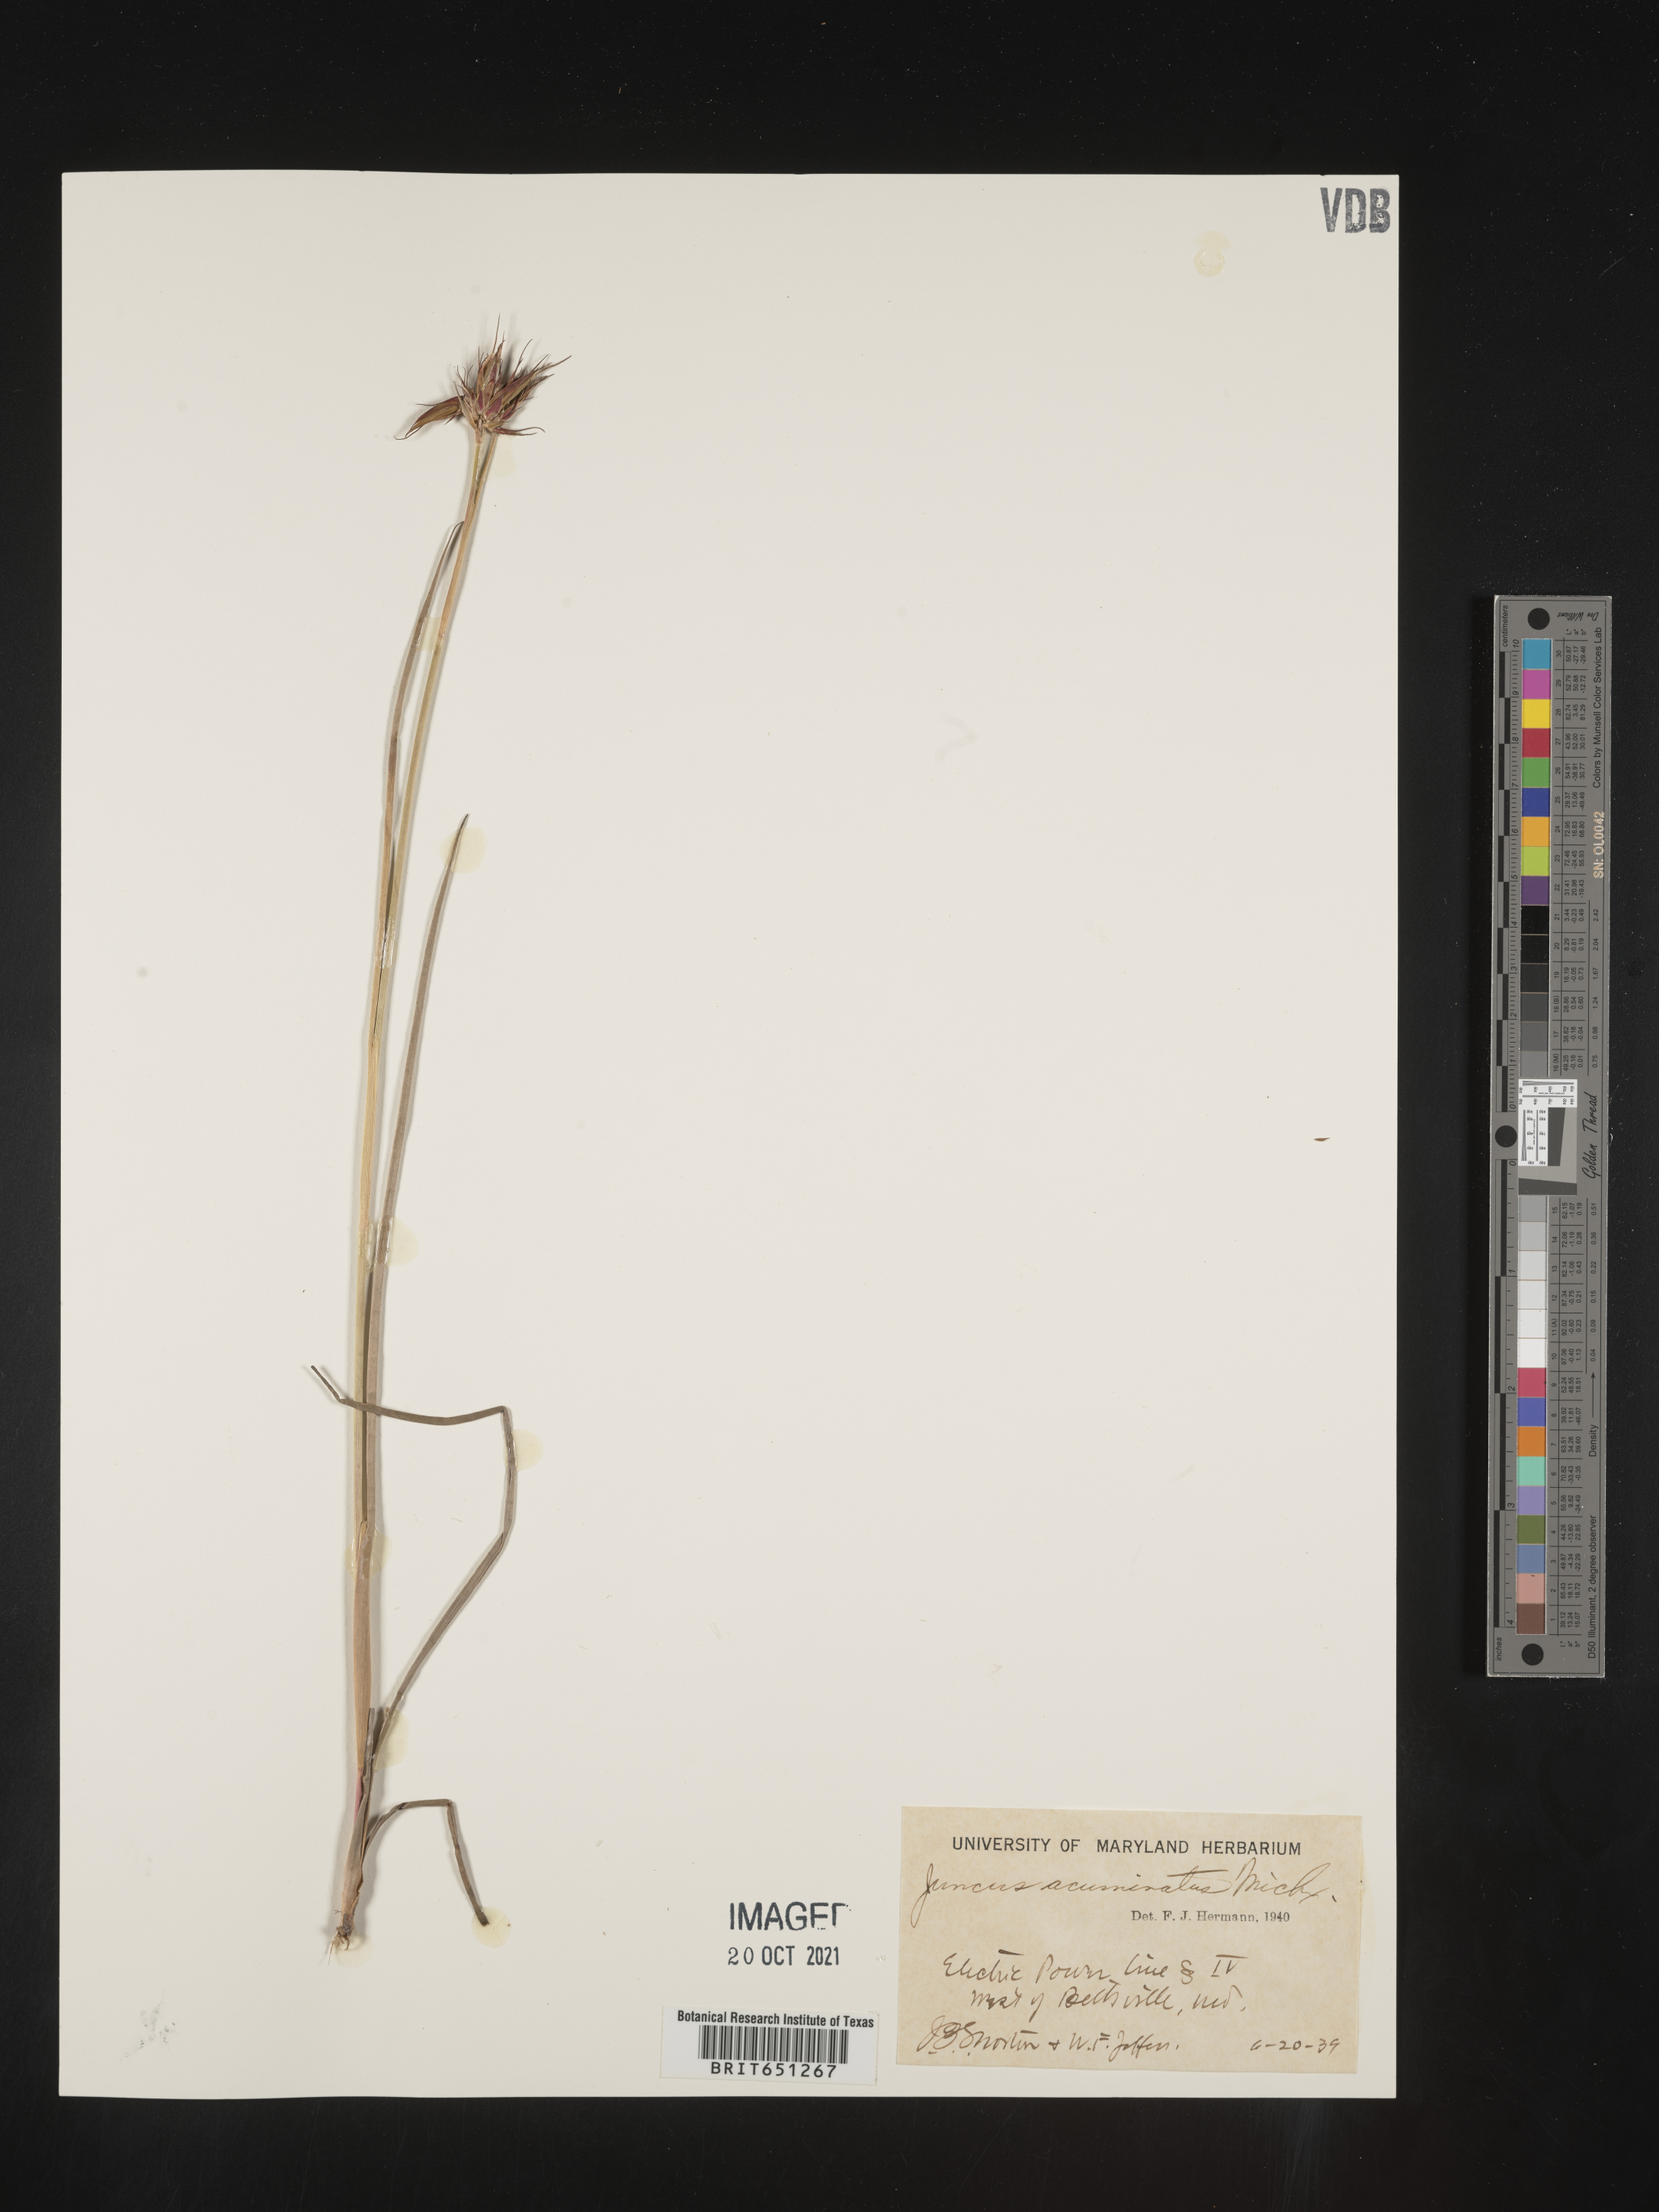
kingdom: Plantae
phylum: Tracheophyta
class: Liliopsida
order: Poales
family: Juncaceae
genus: Juncus
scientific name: Juncus acuminatus
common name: Knotty-leaved rush
